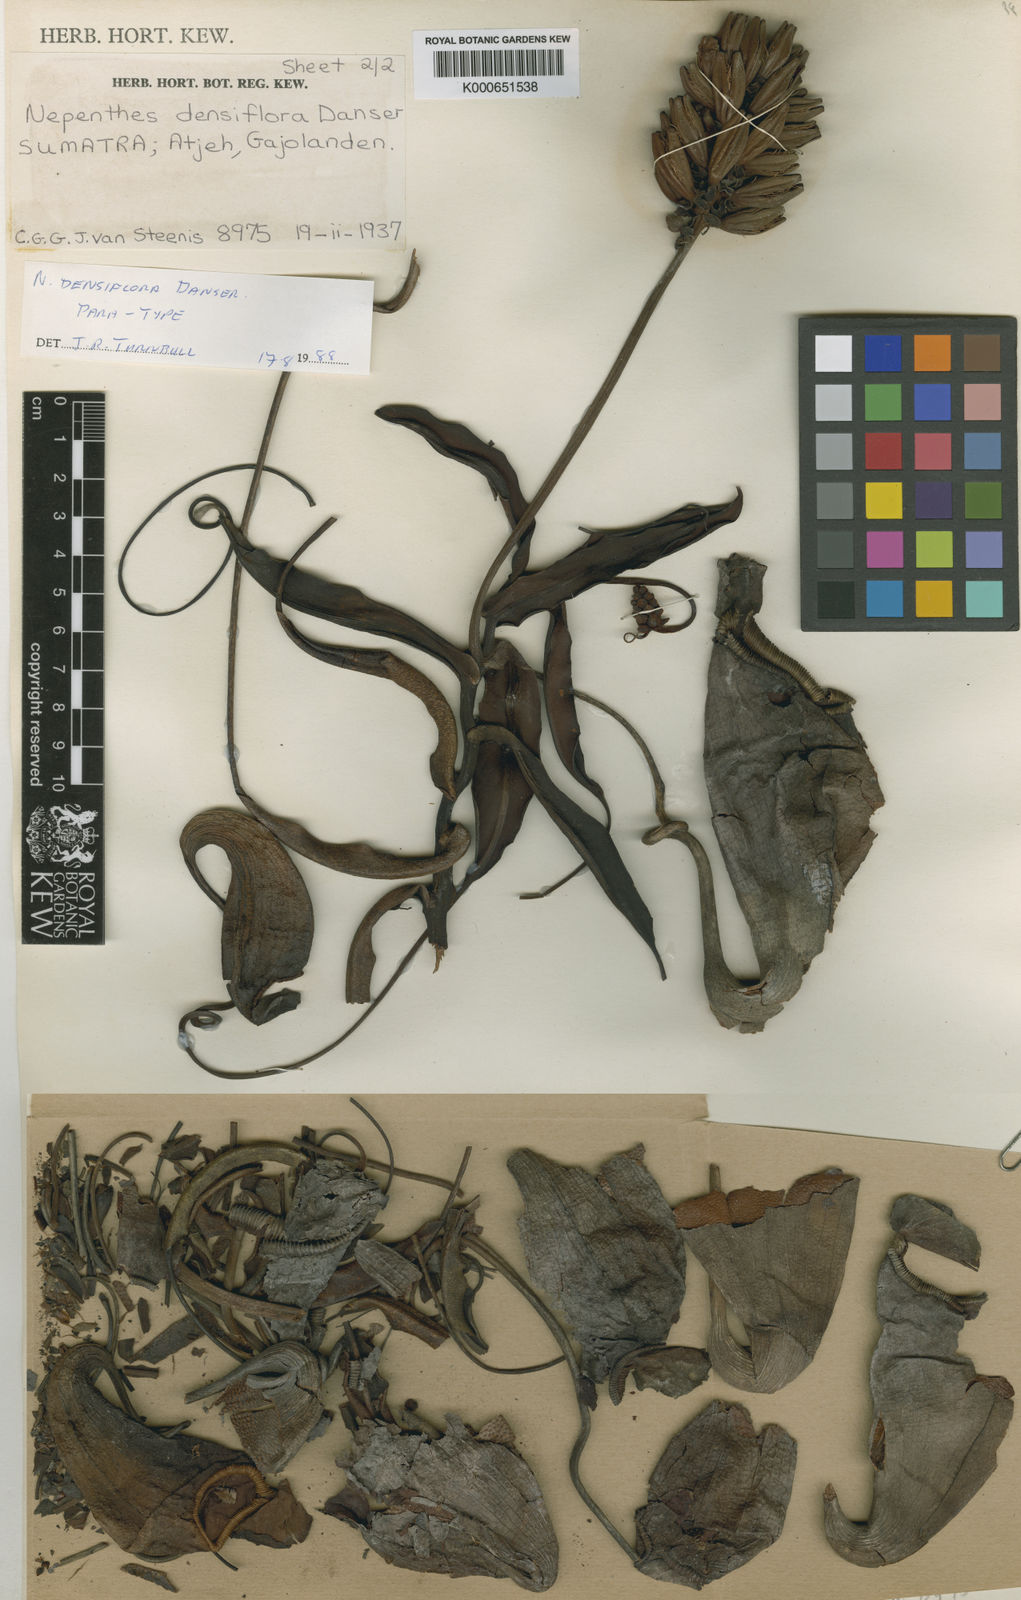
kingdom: Plantae
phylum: Tracheophyta
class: Magnoliopsida
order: Caryophyllales
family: Nepenthaceae
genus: Nepenthes
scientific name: Nepenthes densiflora
